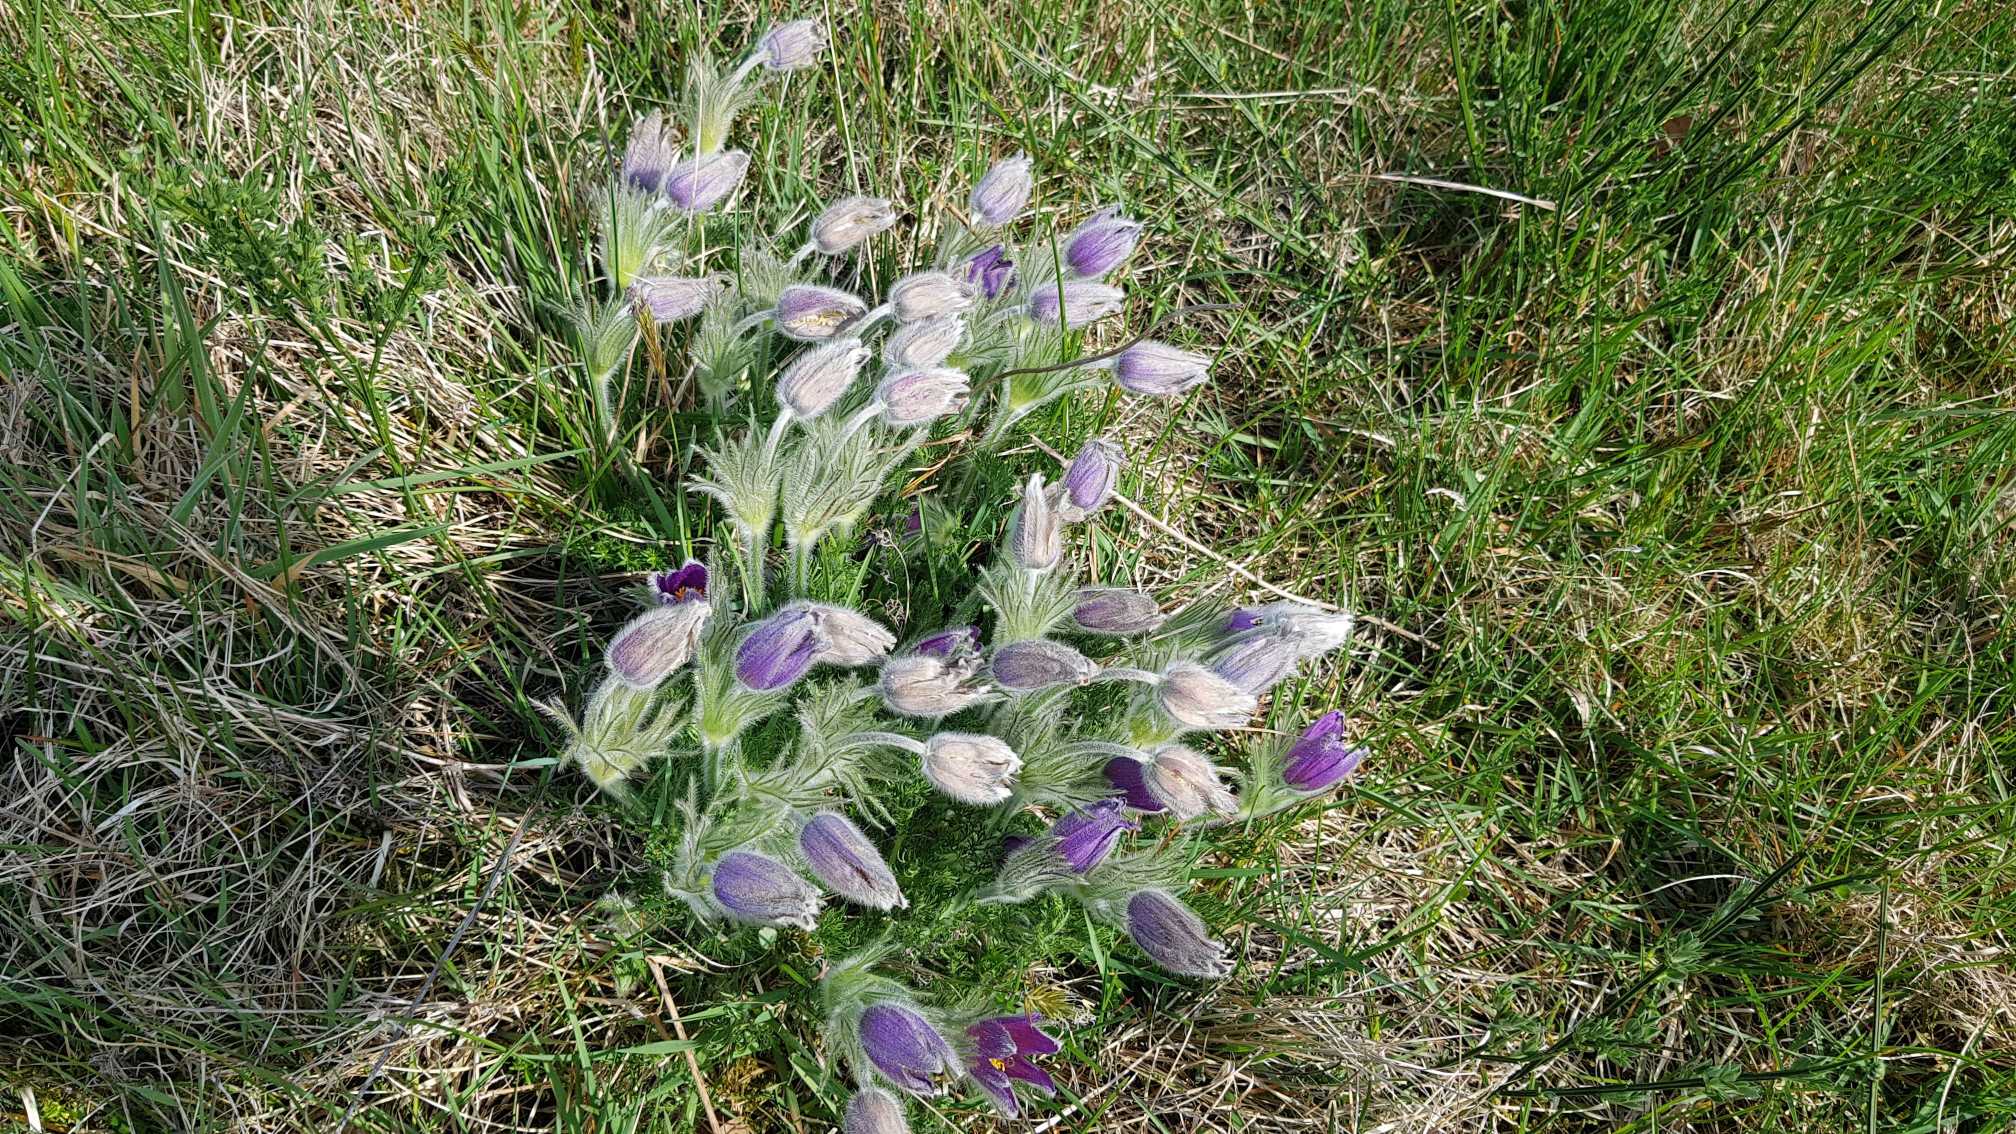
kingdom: Plantae
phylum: Tracheophyta
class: Magnoliopsida
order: Ranunculales
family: Ranunculaceae
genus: Pulsatilla
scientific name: Pulsatilla vulgaris
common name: Opret kobjælde
